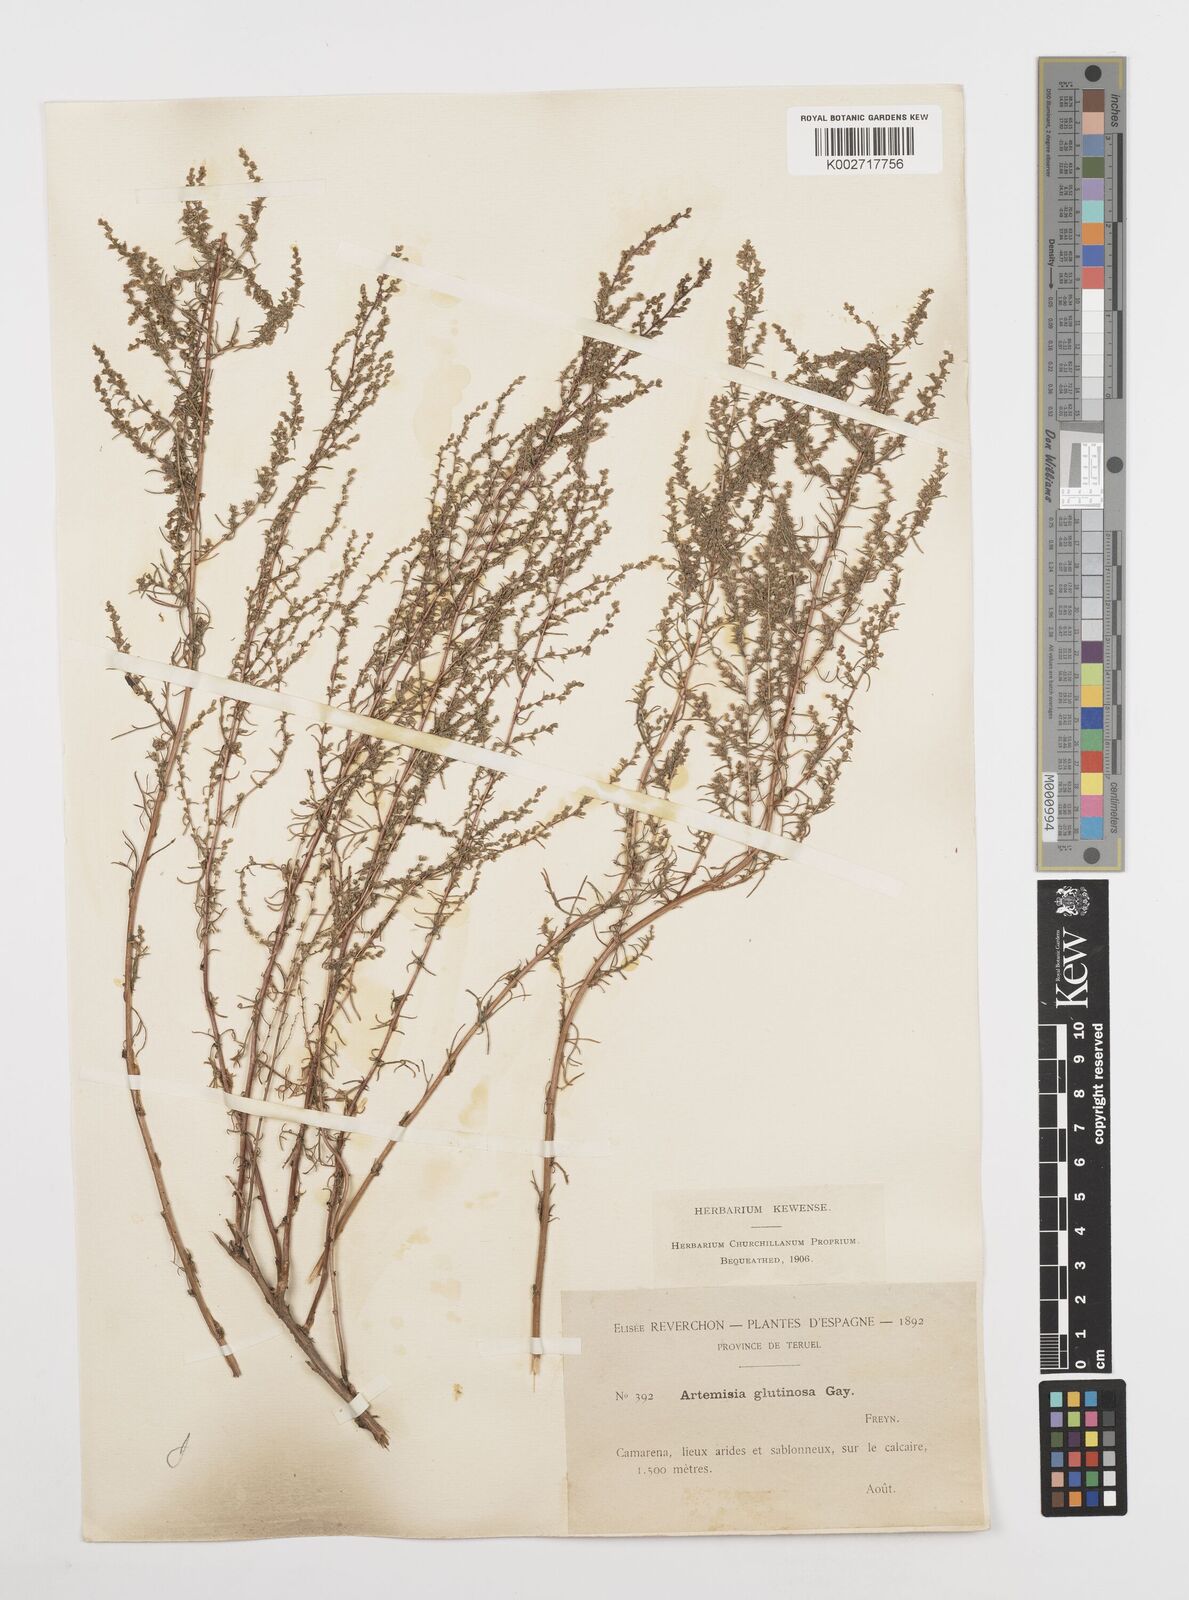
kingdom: Plantae
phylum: Tracheophyta
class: Magnoliopsida
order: Asterales
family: Asteraceae
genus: Artemisia
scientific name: Artemisia campestris
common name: Field wormwood
